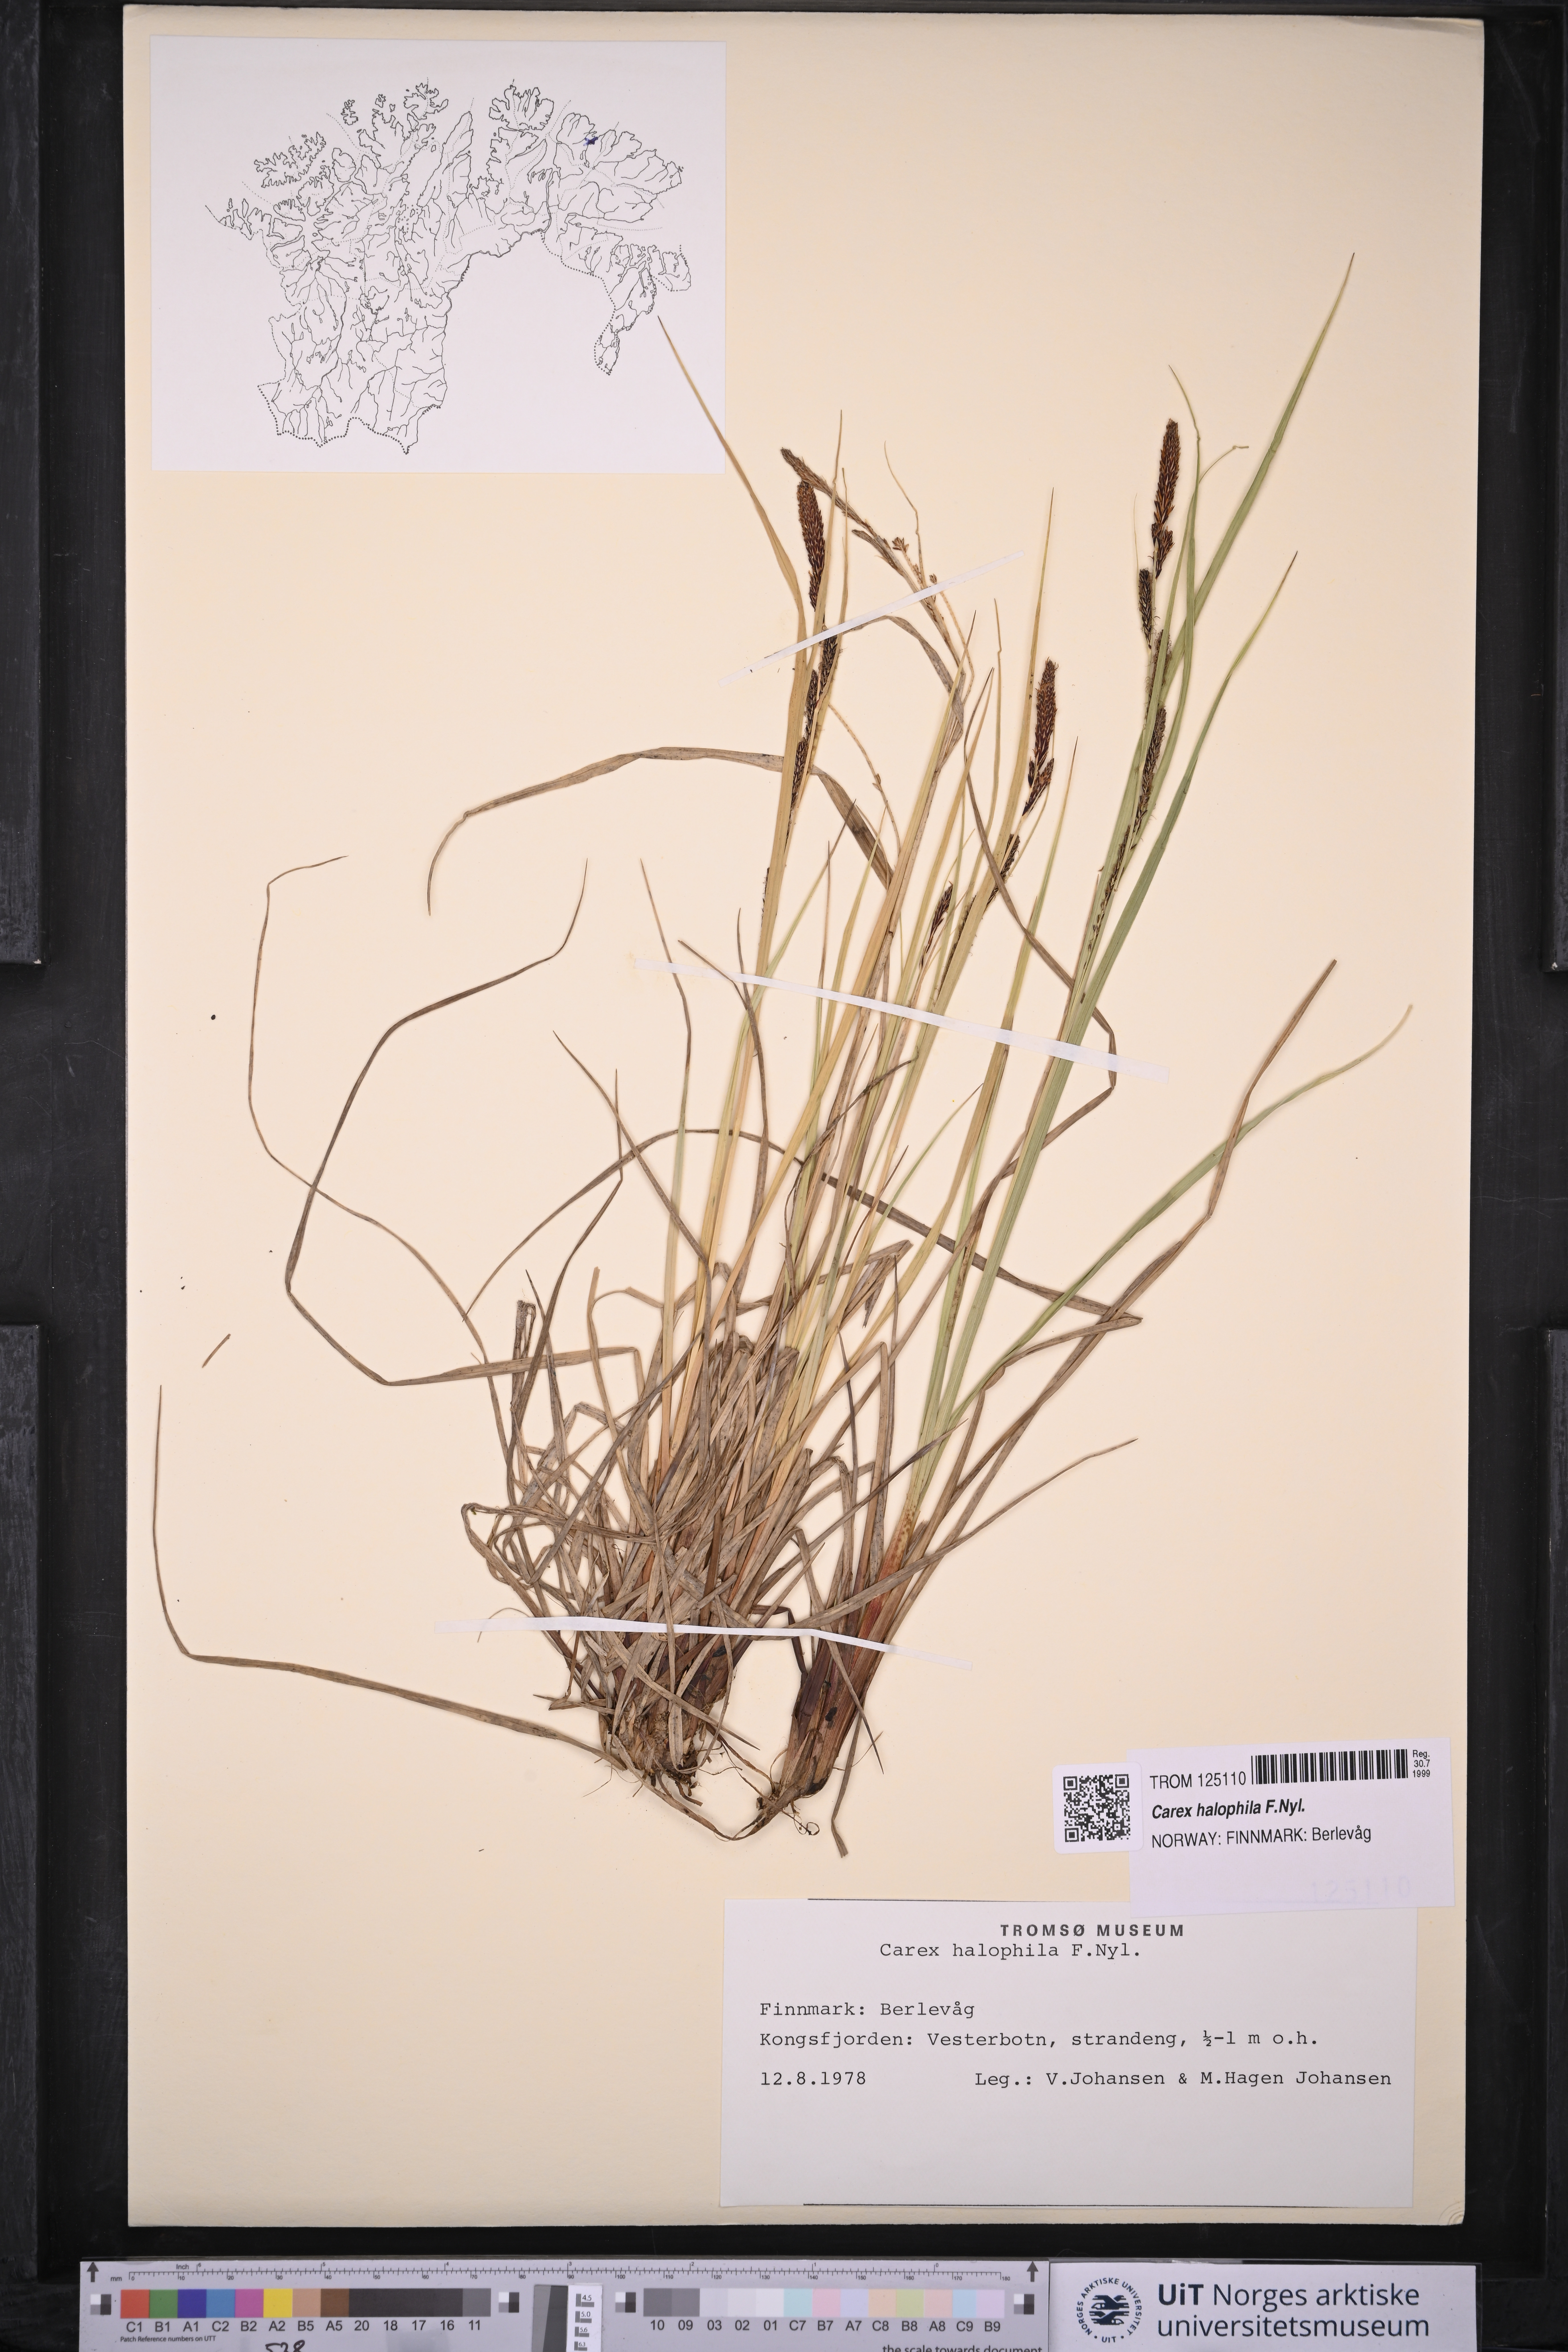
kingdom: Plantae
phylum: Tracheophyta
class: Liliopsida
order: Poales
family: Cyperaceae
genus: Carex
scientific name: Carex halophila
